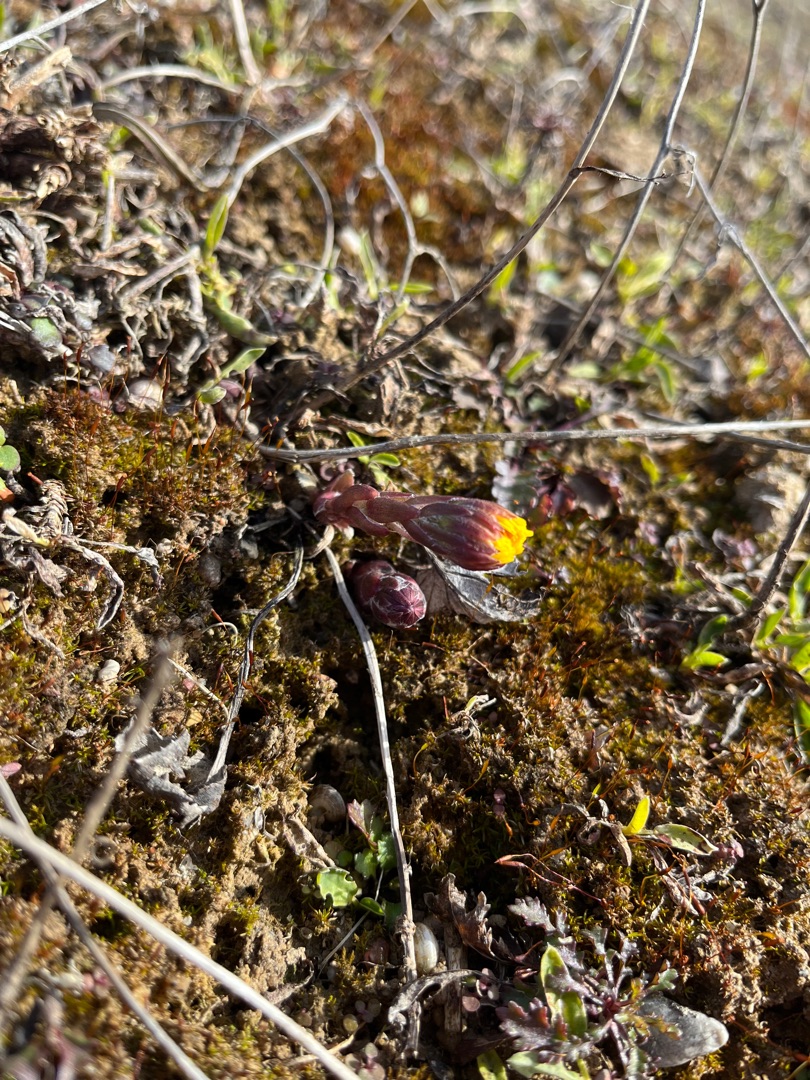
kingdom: Plantae
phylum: Tracheophyta
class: Magnoliopsida
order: Asterales
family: Asteraceae
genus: Tussilago
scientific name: Tussilago farfara
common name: Følfod
